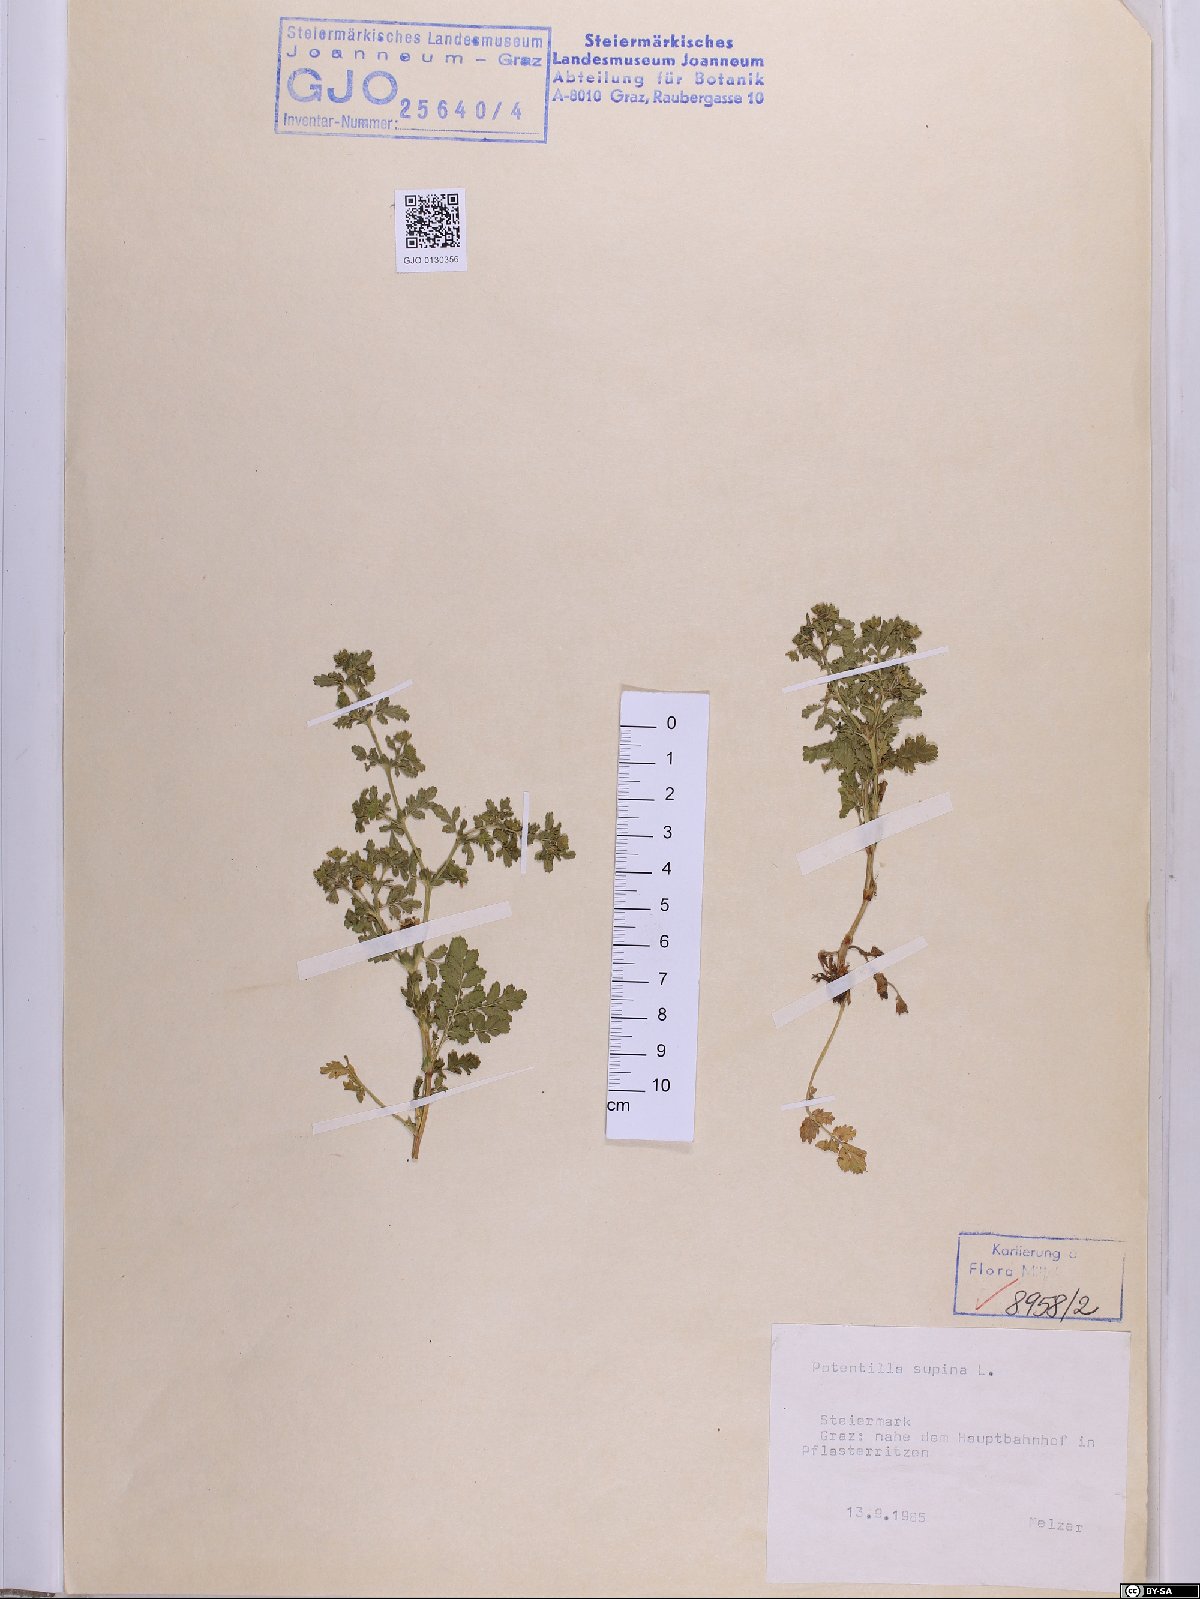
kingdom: Plantae
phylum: Tracheophyta
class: Magnoliopsida
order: Rosales
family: Rosaceae
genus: Potentilla
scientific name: Potentilla supina
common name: Prostrate cinquefoil
